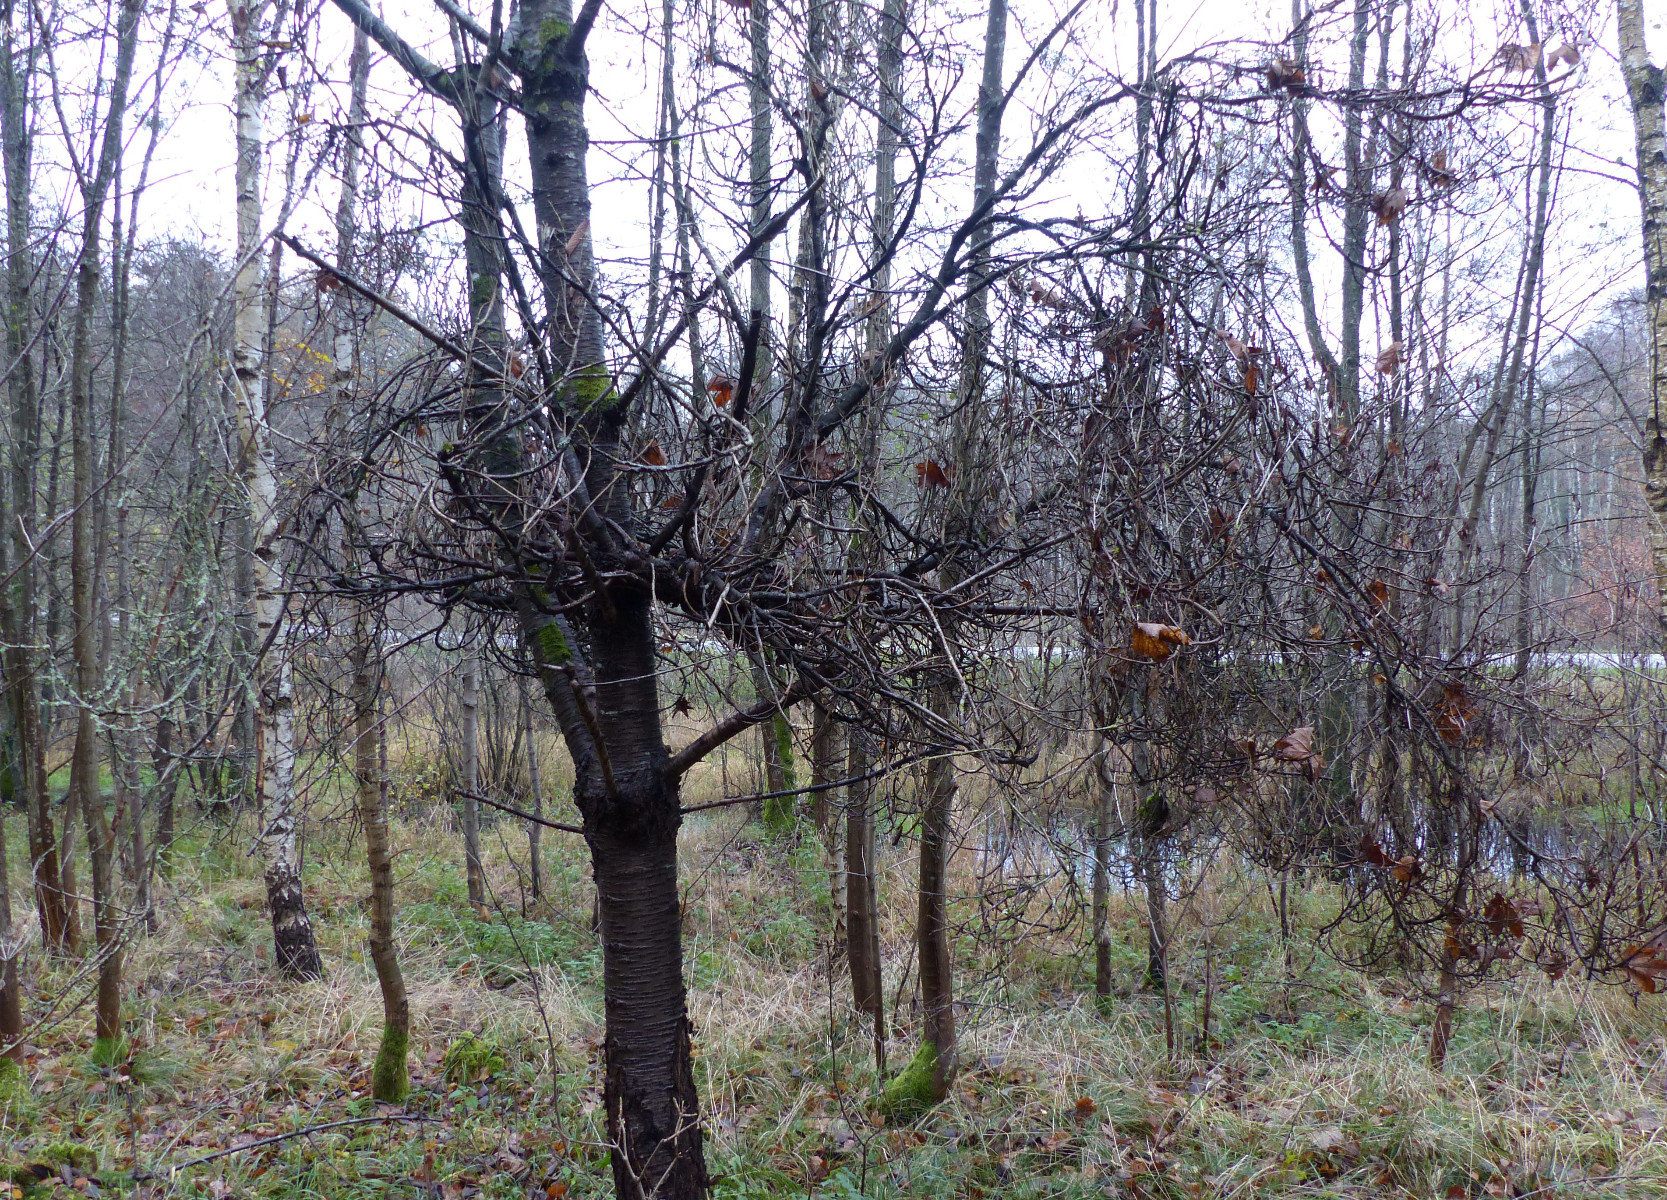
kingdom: Fungi
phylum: Ascomycota
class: Taphrinomycetes
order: Taphrinales
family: Taphrinaceae
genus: Taphrina
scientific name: Taphrina wiesneri
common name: Cherry leaf curl
